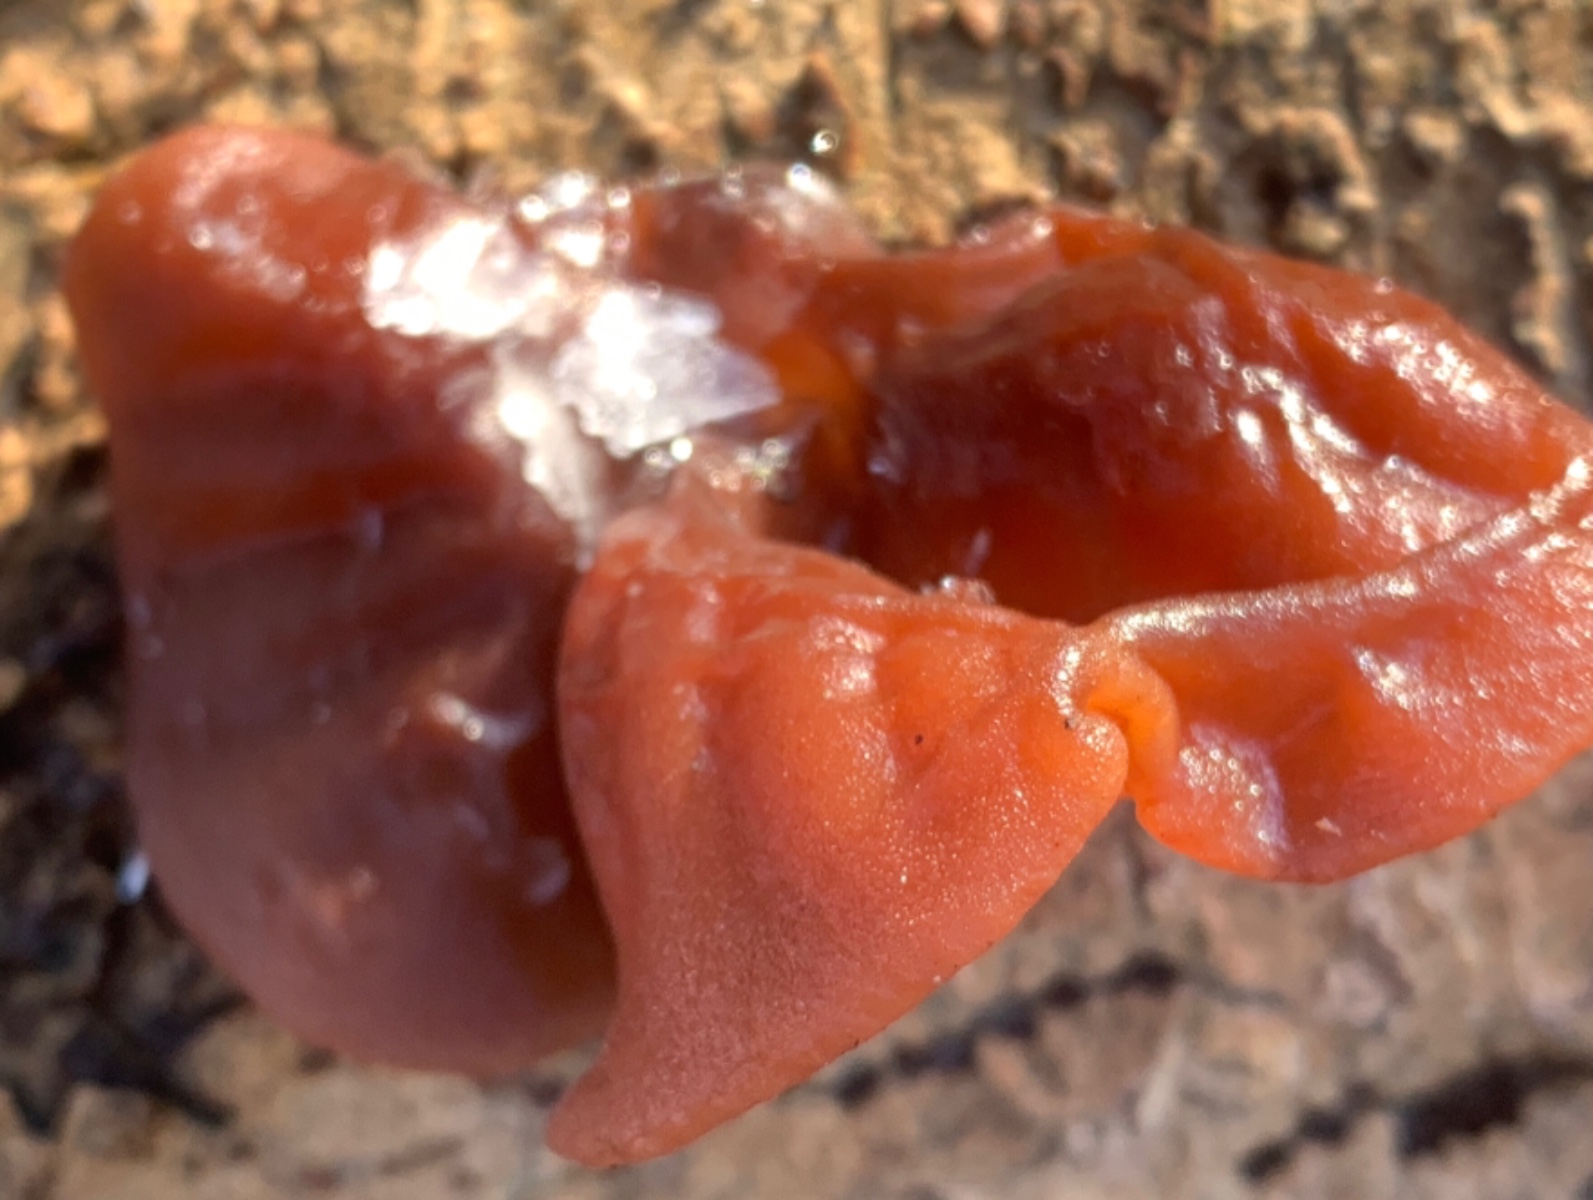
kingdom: Fungi
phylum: Basidiomycota
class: Agaricomycetes
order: Auriculariales
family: Auriculariaceae
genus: Auricularia
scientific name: Auricularia auricula-judae
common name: almindelig judasøre
